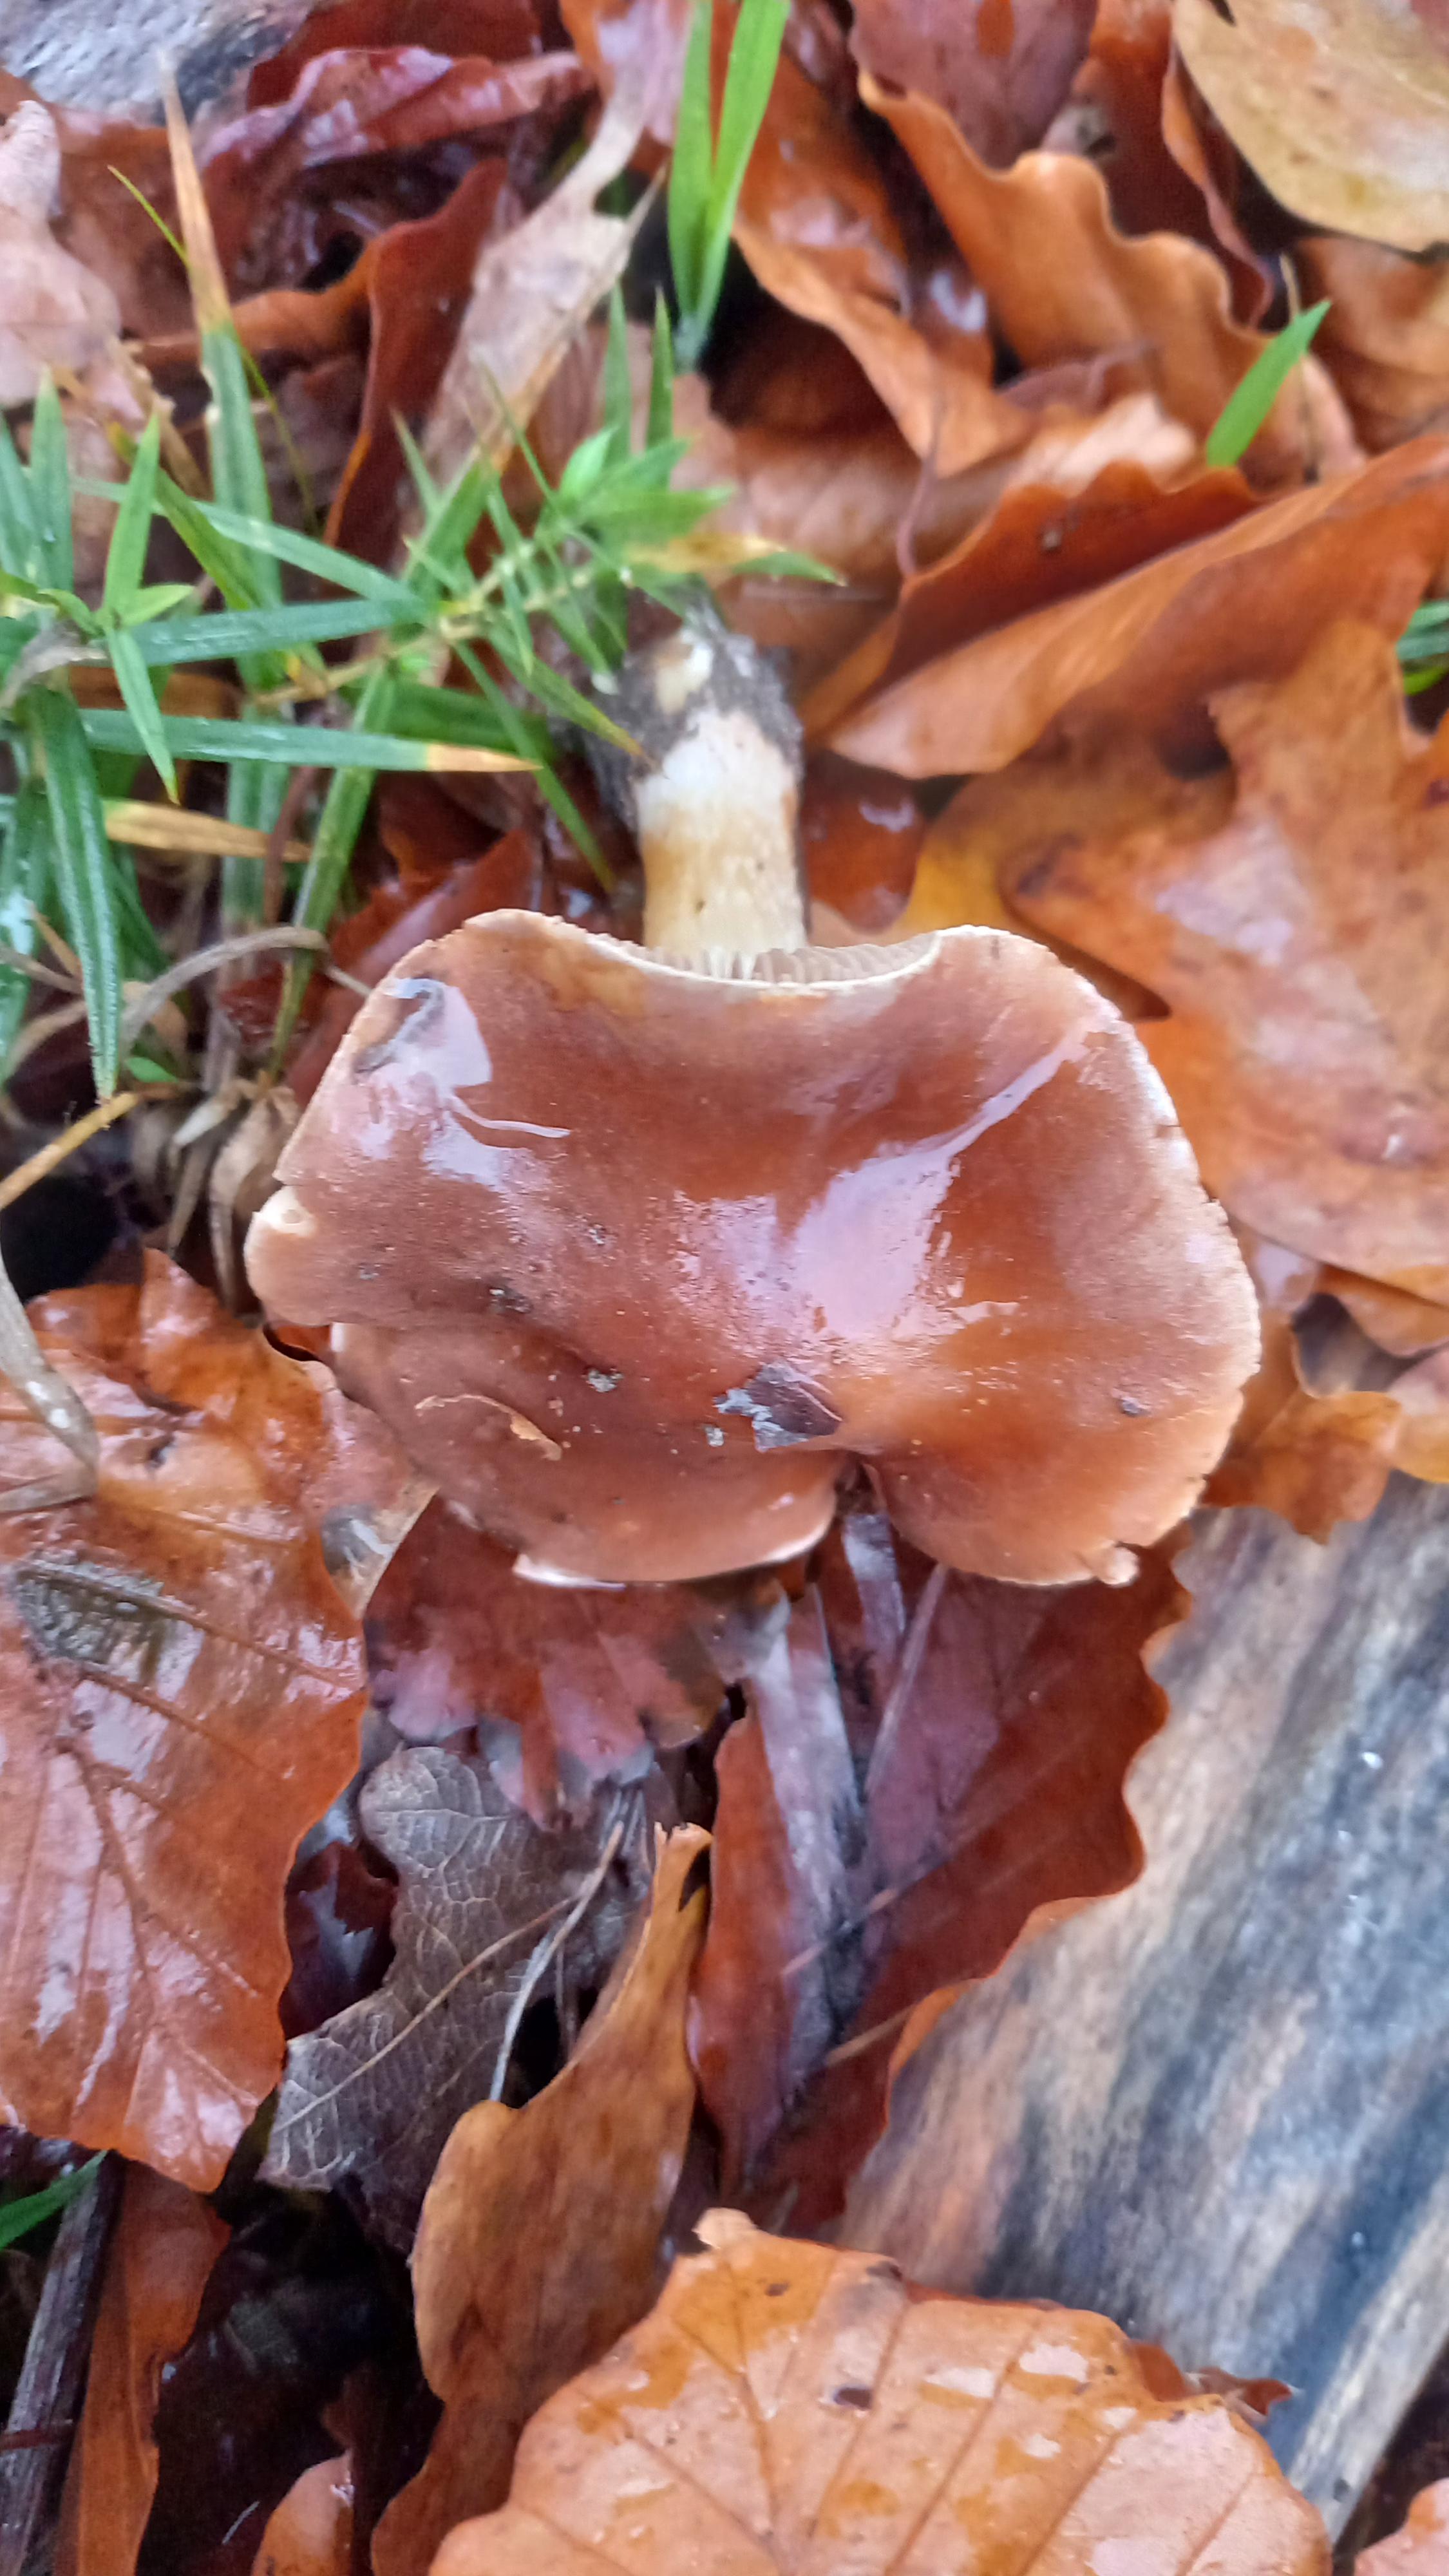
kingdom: Fungi
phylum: Basidiomycota
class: Agaricomycetes
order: Agaricales
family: Hymenogastraceae
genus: Hebeloma
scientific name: Hebeloma theobrominum
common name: rødbrun tåreblad
